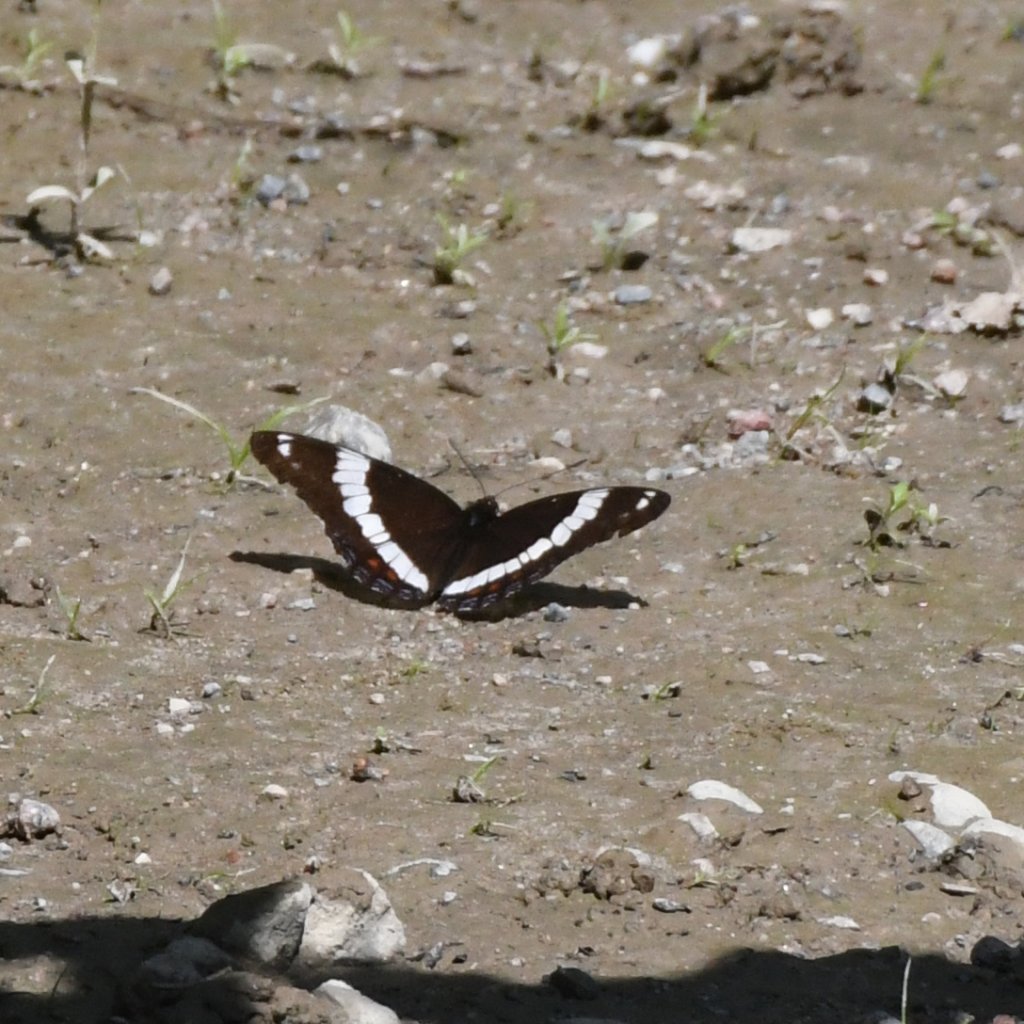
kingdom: Animalia
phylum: Arthropoda
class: Insecta
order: Lepidoptera
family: Nymphalidae
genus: Limenitis
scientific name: Limenitis arthemis
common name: Red-spotted Admiral
